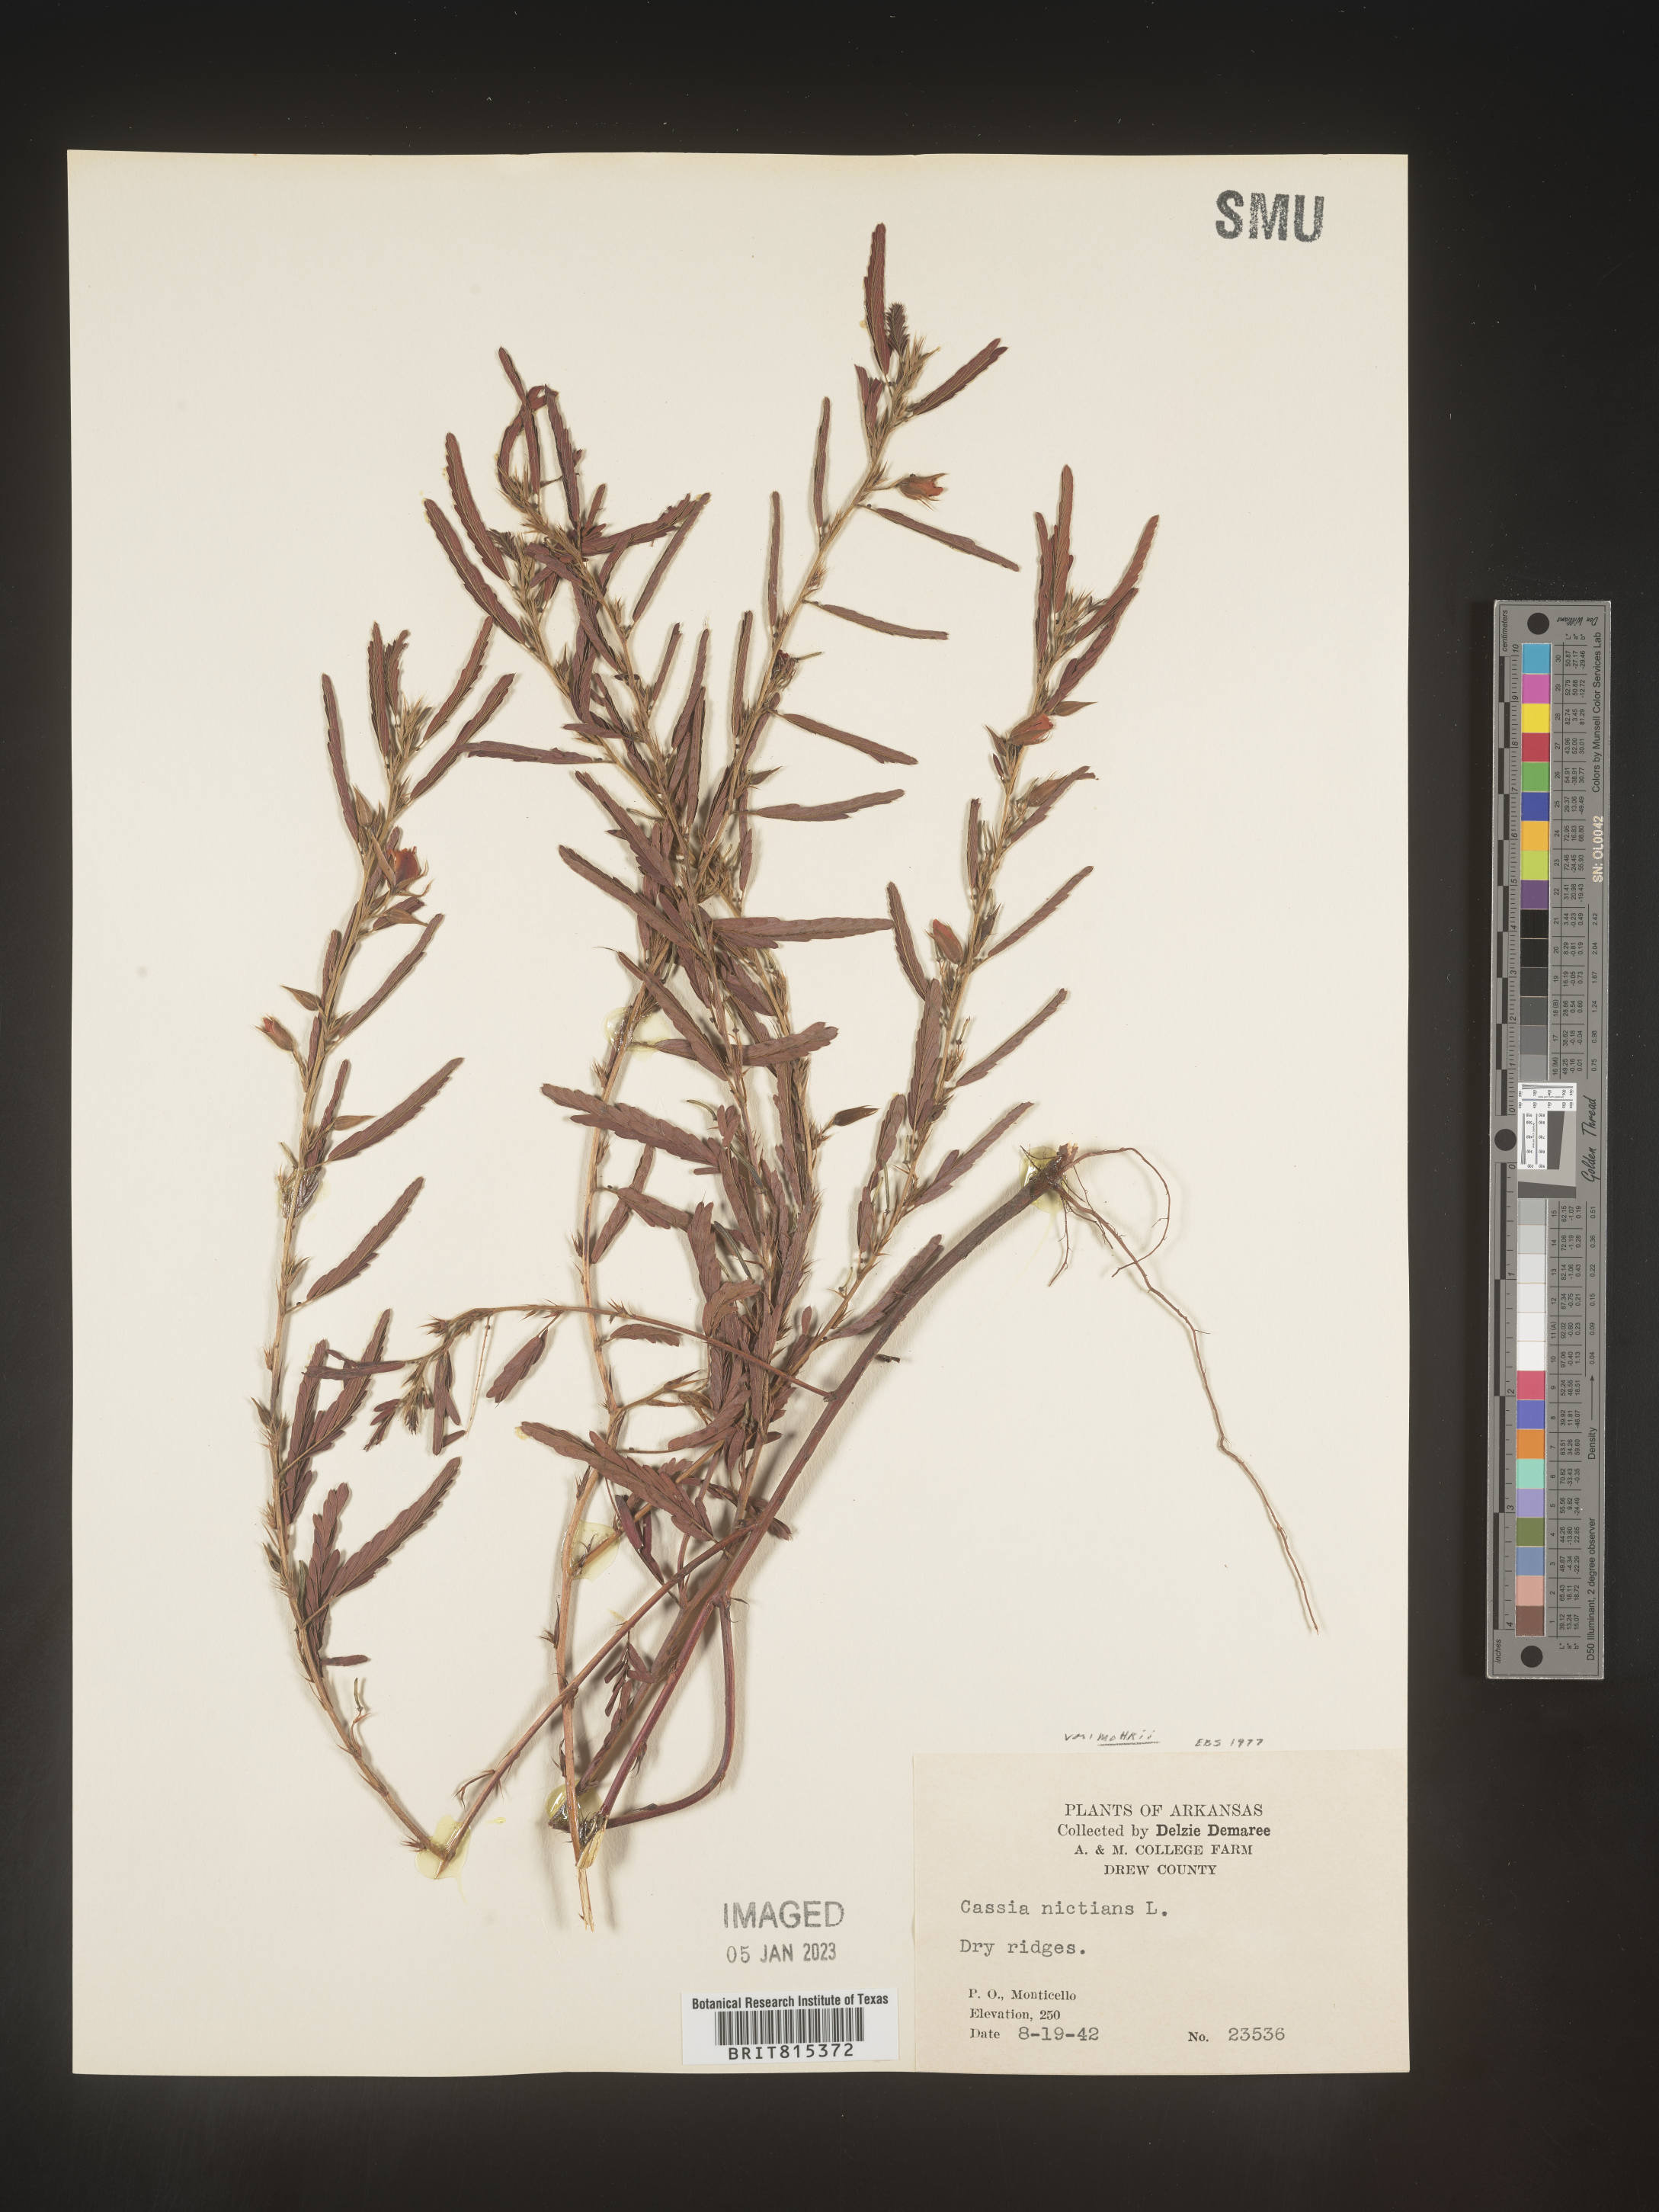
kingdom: Plantae
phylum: Tracheophyta
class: Magnoliopsida
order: Fabales
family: Fabaceae
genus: Chamaecrista
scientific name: Chamaecrista nictitans
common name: Sensitive cassia
